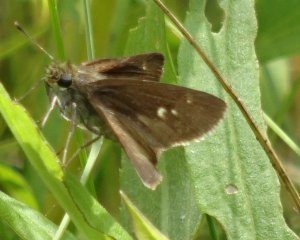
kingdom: Animalia
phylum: Arthropoda
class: Insecta
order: Lepidoptera
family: Hesperiidae
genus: Euphyes
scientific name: Euphyes vestris
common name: Dun Skipper
